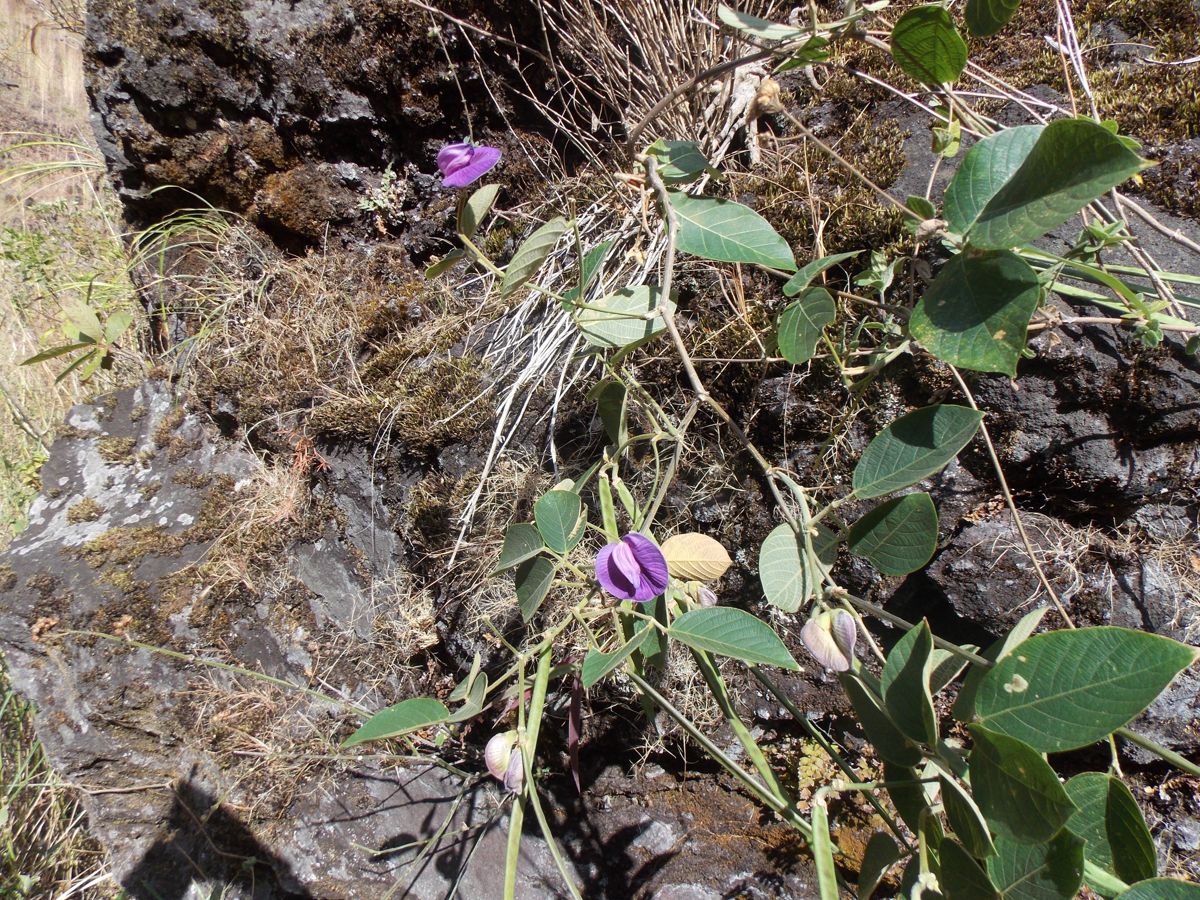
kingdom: Plantae
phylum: Tracheophyta
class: Magnoliopsida
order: Fabales
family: Fabaceae
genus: Centrosema
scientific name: Centrosema pubescens
